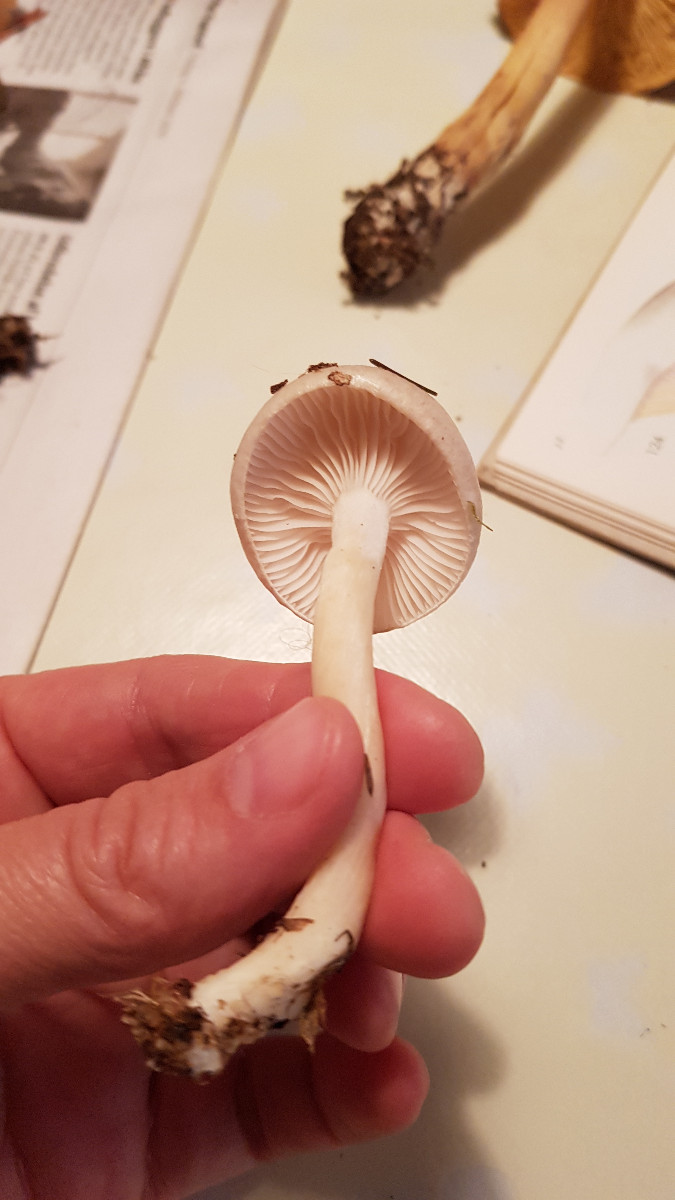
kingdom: Fungi
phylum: Basidiomycota
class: Agaricomycetes
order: Agaricales
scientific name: Agaricales
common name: champignonordenen
